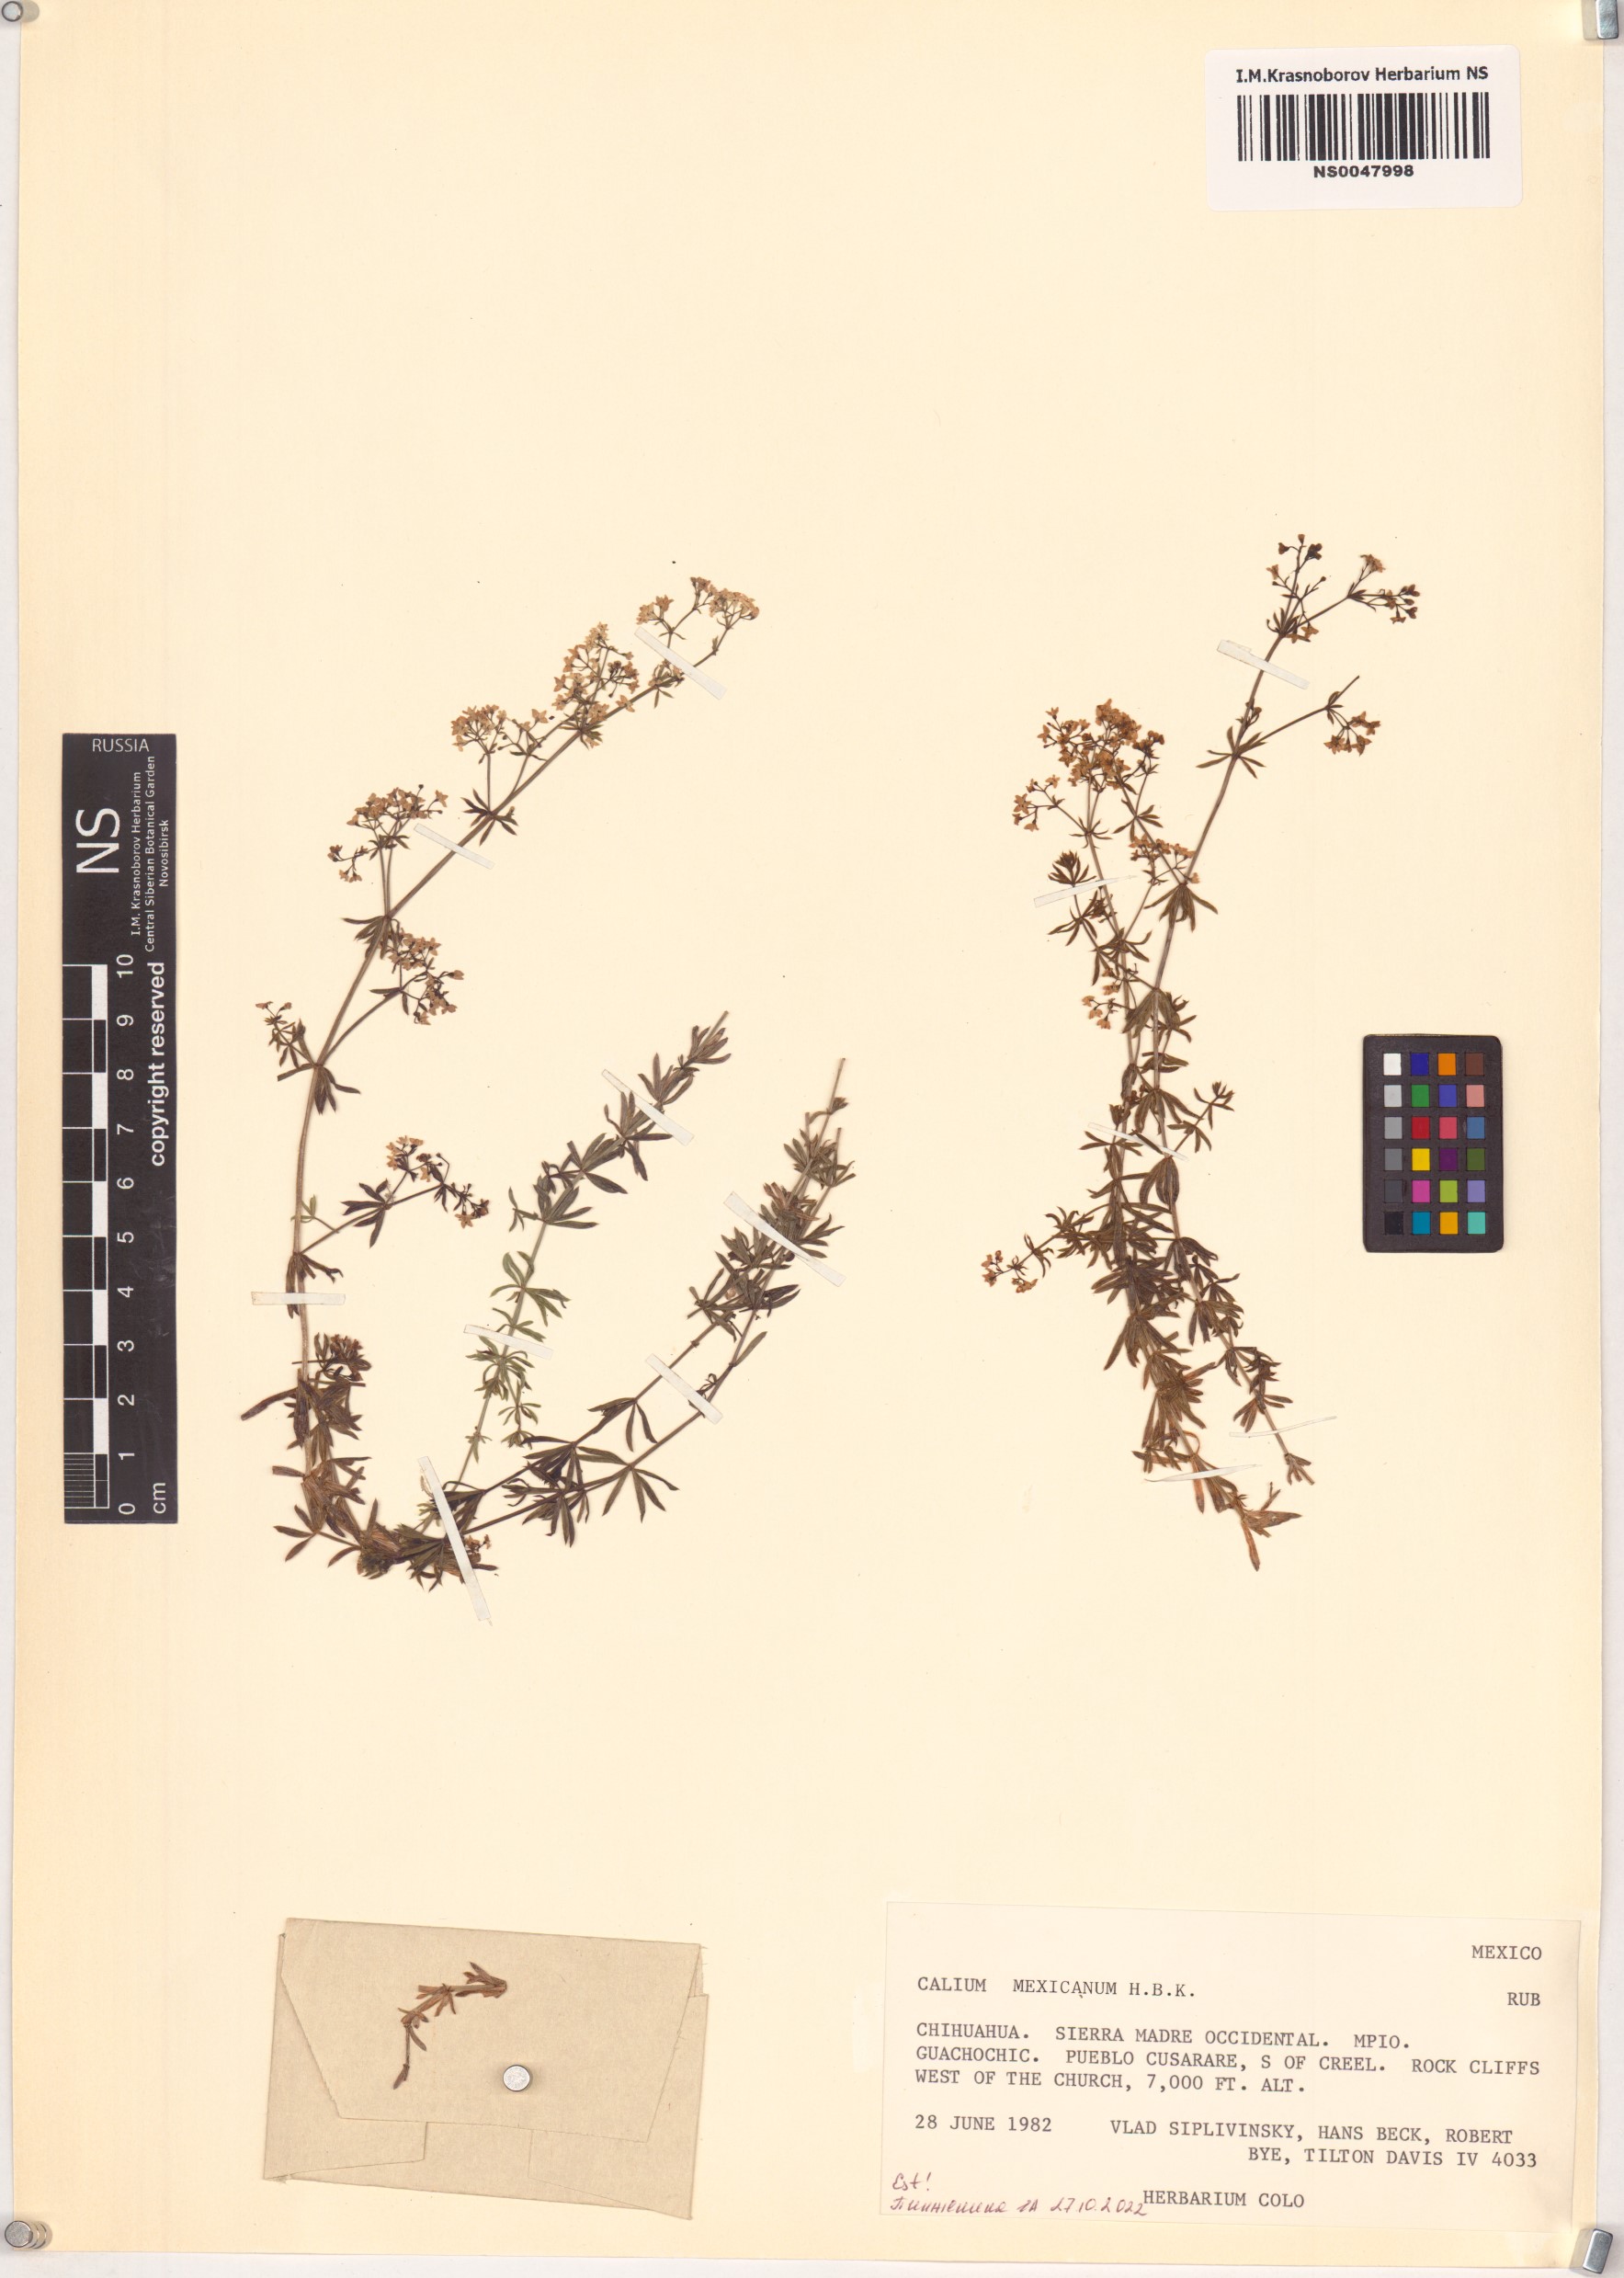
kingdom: Plantae
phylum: Tracheophyta
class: Magnoliopsida
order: Gentianales
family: Rubiaceae
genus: Galium
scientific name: Galium mexicanum
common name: Mexican bedstraw
